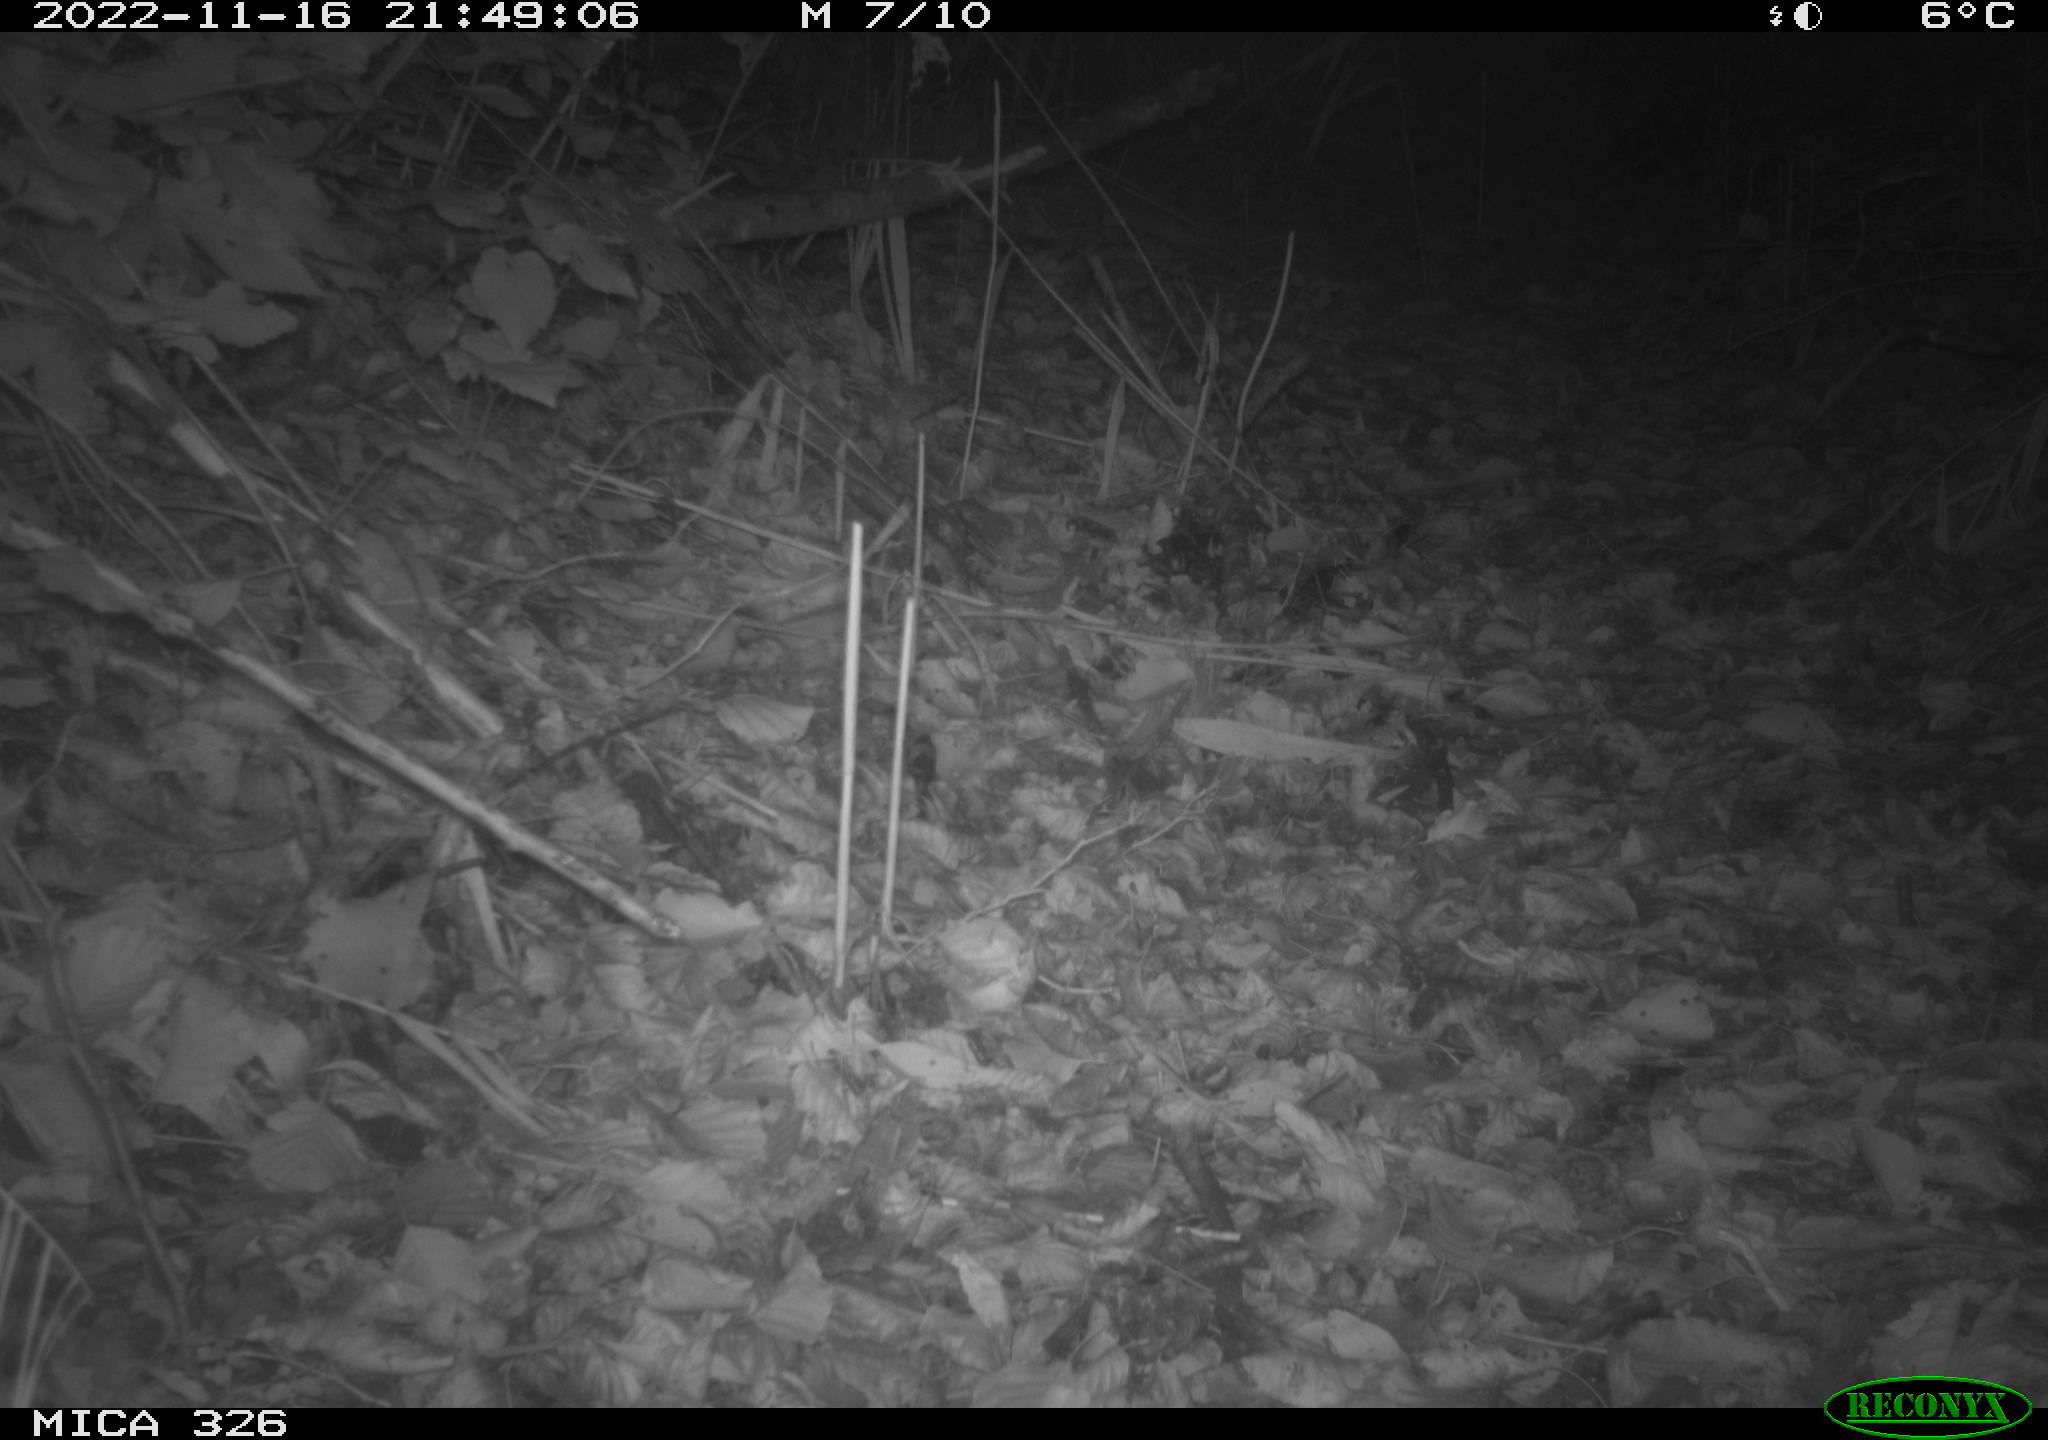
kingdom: Animalia
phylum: Chordata
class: Mammalia
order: Carnivora
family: Mustelidae
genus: Lutra
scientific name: Lutra lutra
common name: European otter
